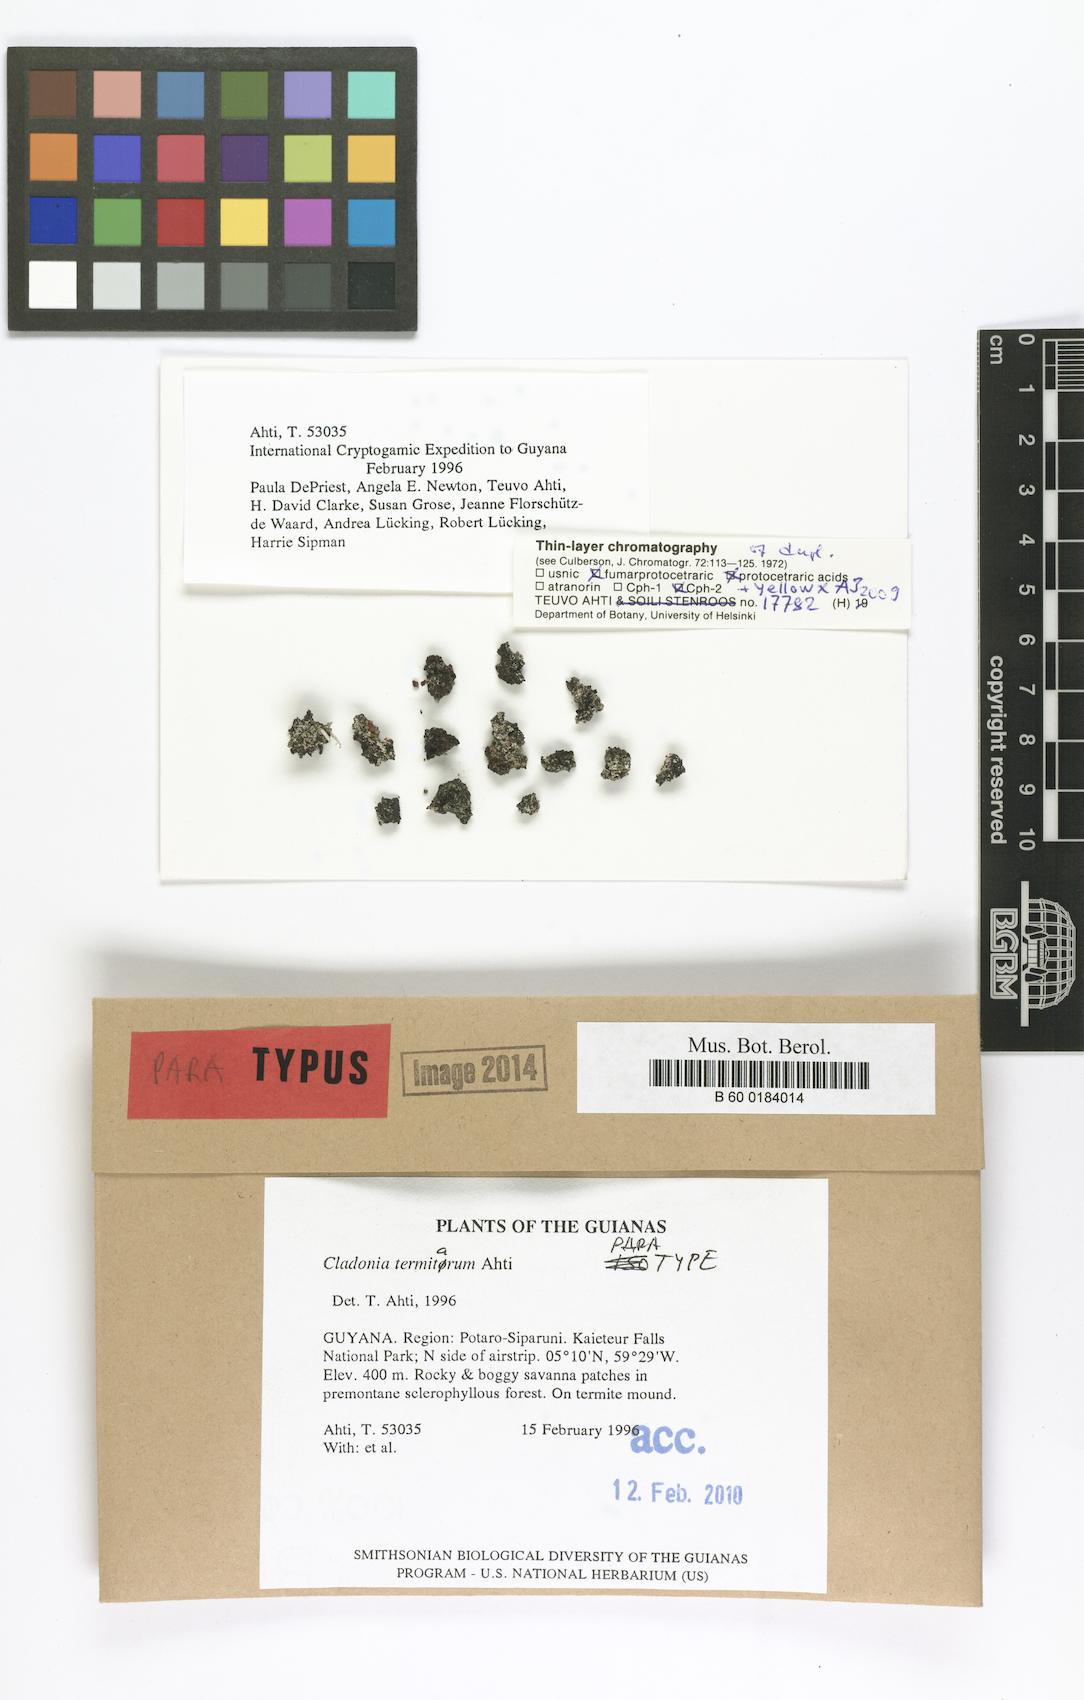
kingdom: Fungi
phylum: Ascomycota
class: Lecanoromycetes
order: Lecanorales
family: Cladoniaceae
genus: Cladonia
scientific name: Cladonia termitarum
